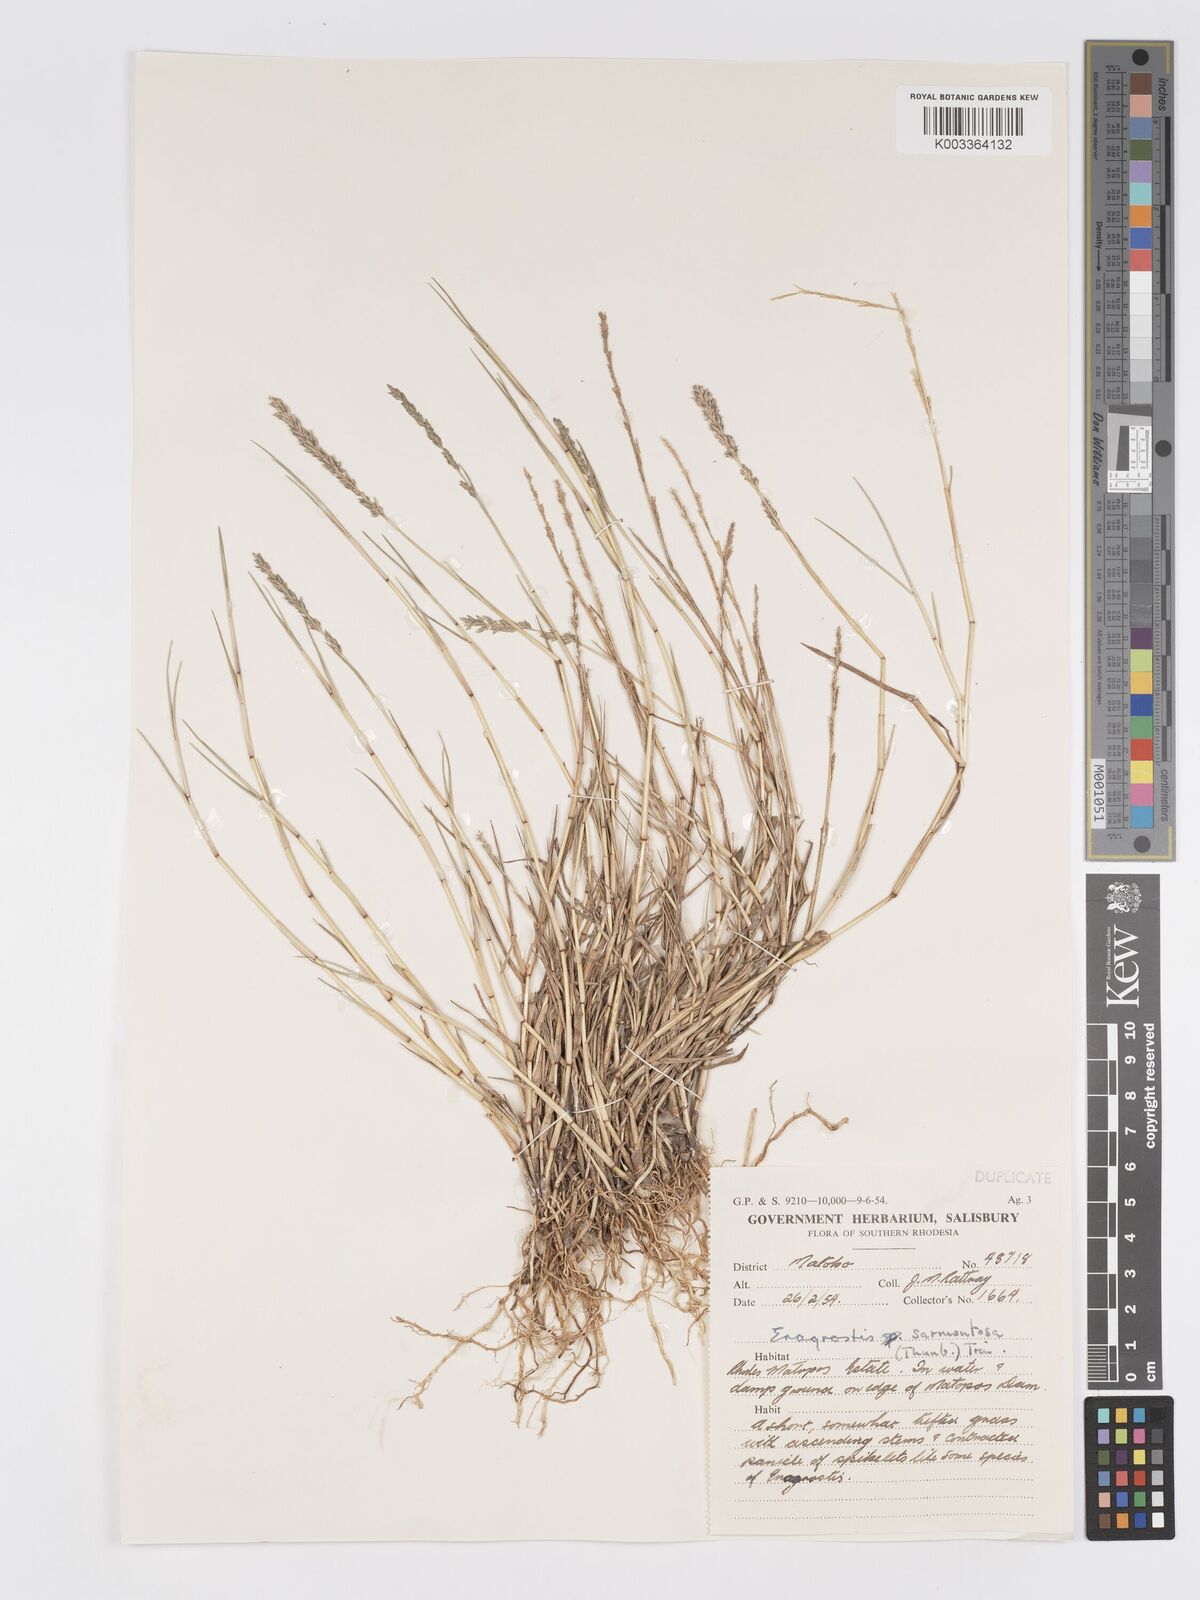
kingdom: Plantae
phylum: Tracheophyta
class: Liliopsida
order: Poales
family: Poaceae
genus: Eragrostis
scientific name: Eragrostis sarmentosa
